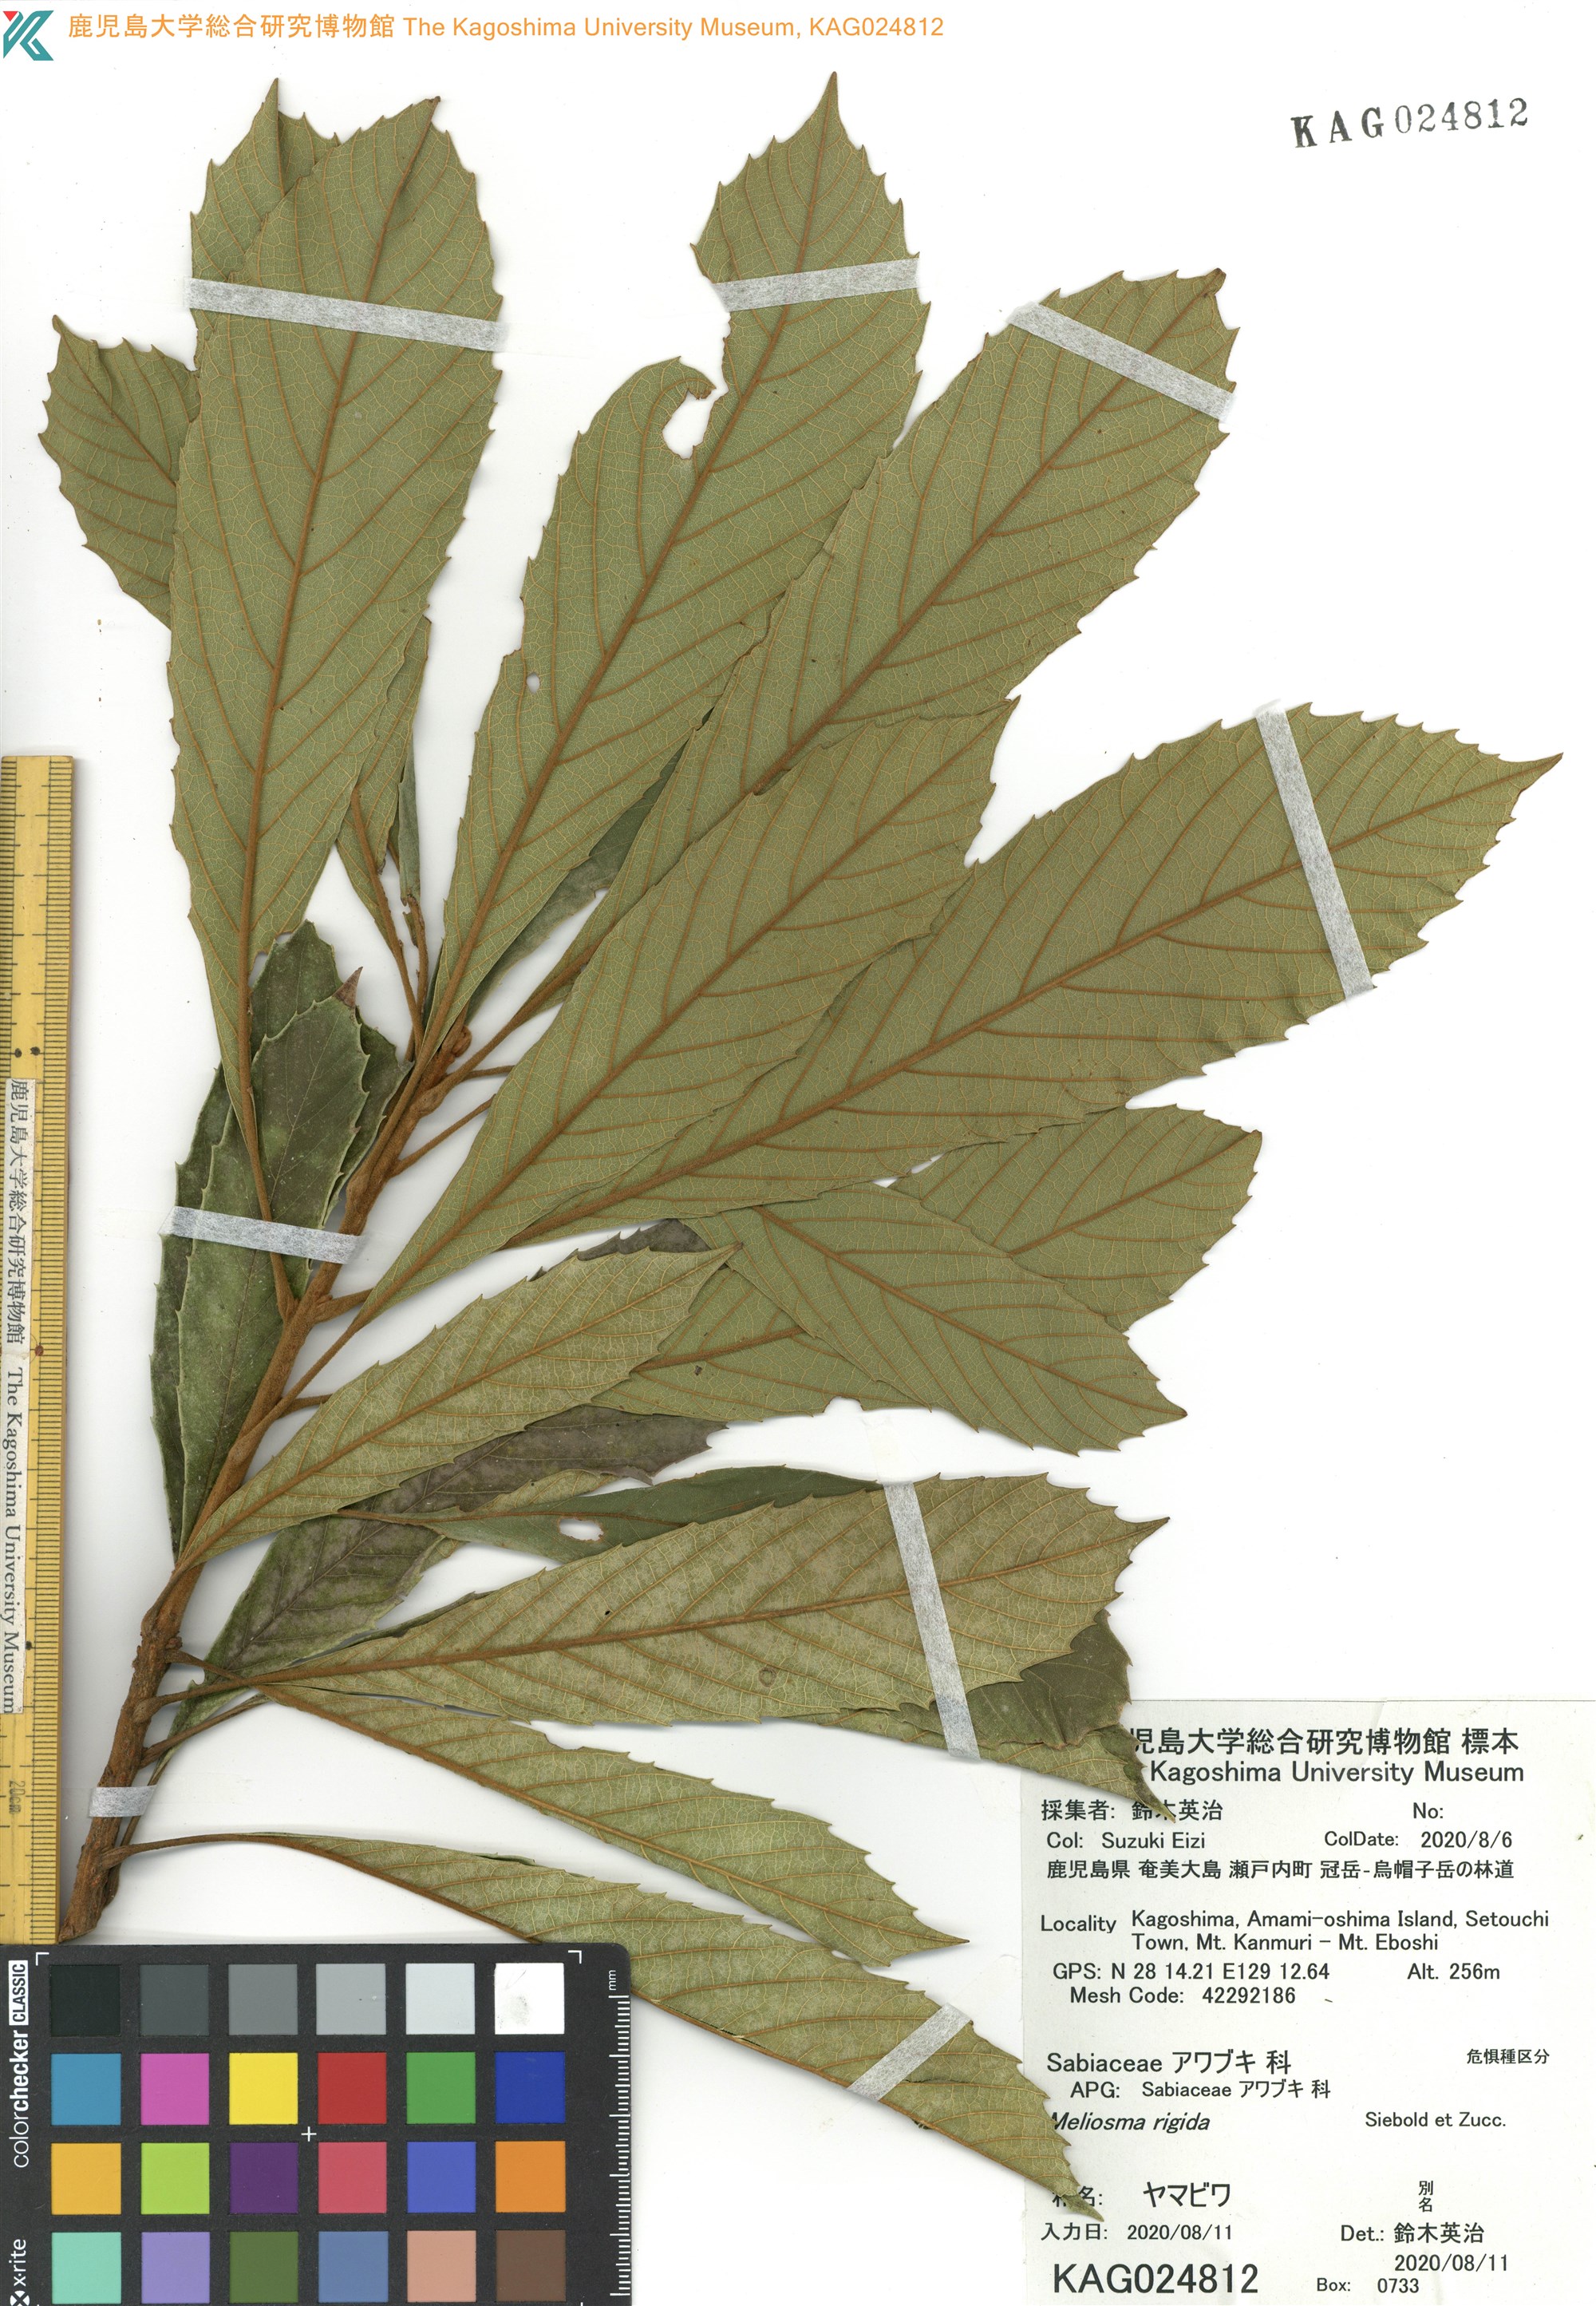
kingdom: Plantae
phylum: Tracheophyta
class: Magnoliopsida
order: Proteales
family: Sabiaceae
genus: Meliosma
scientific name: Meliosma rigida
